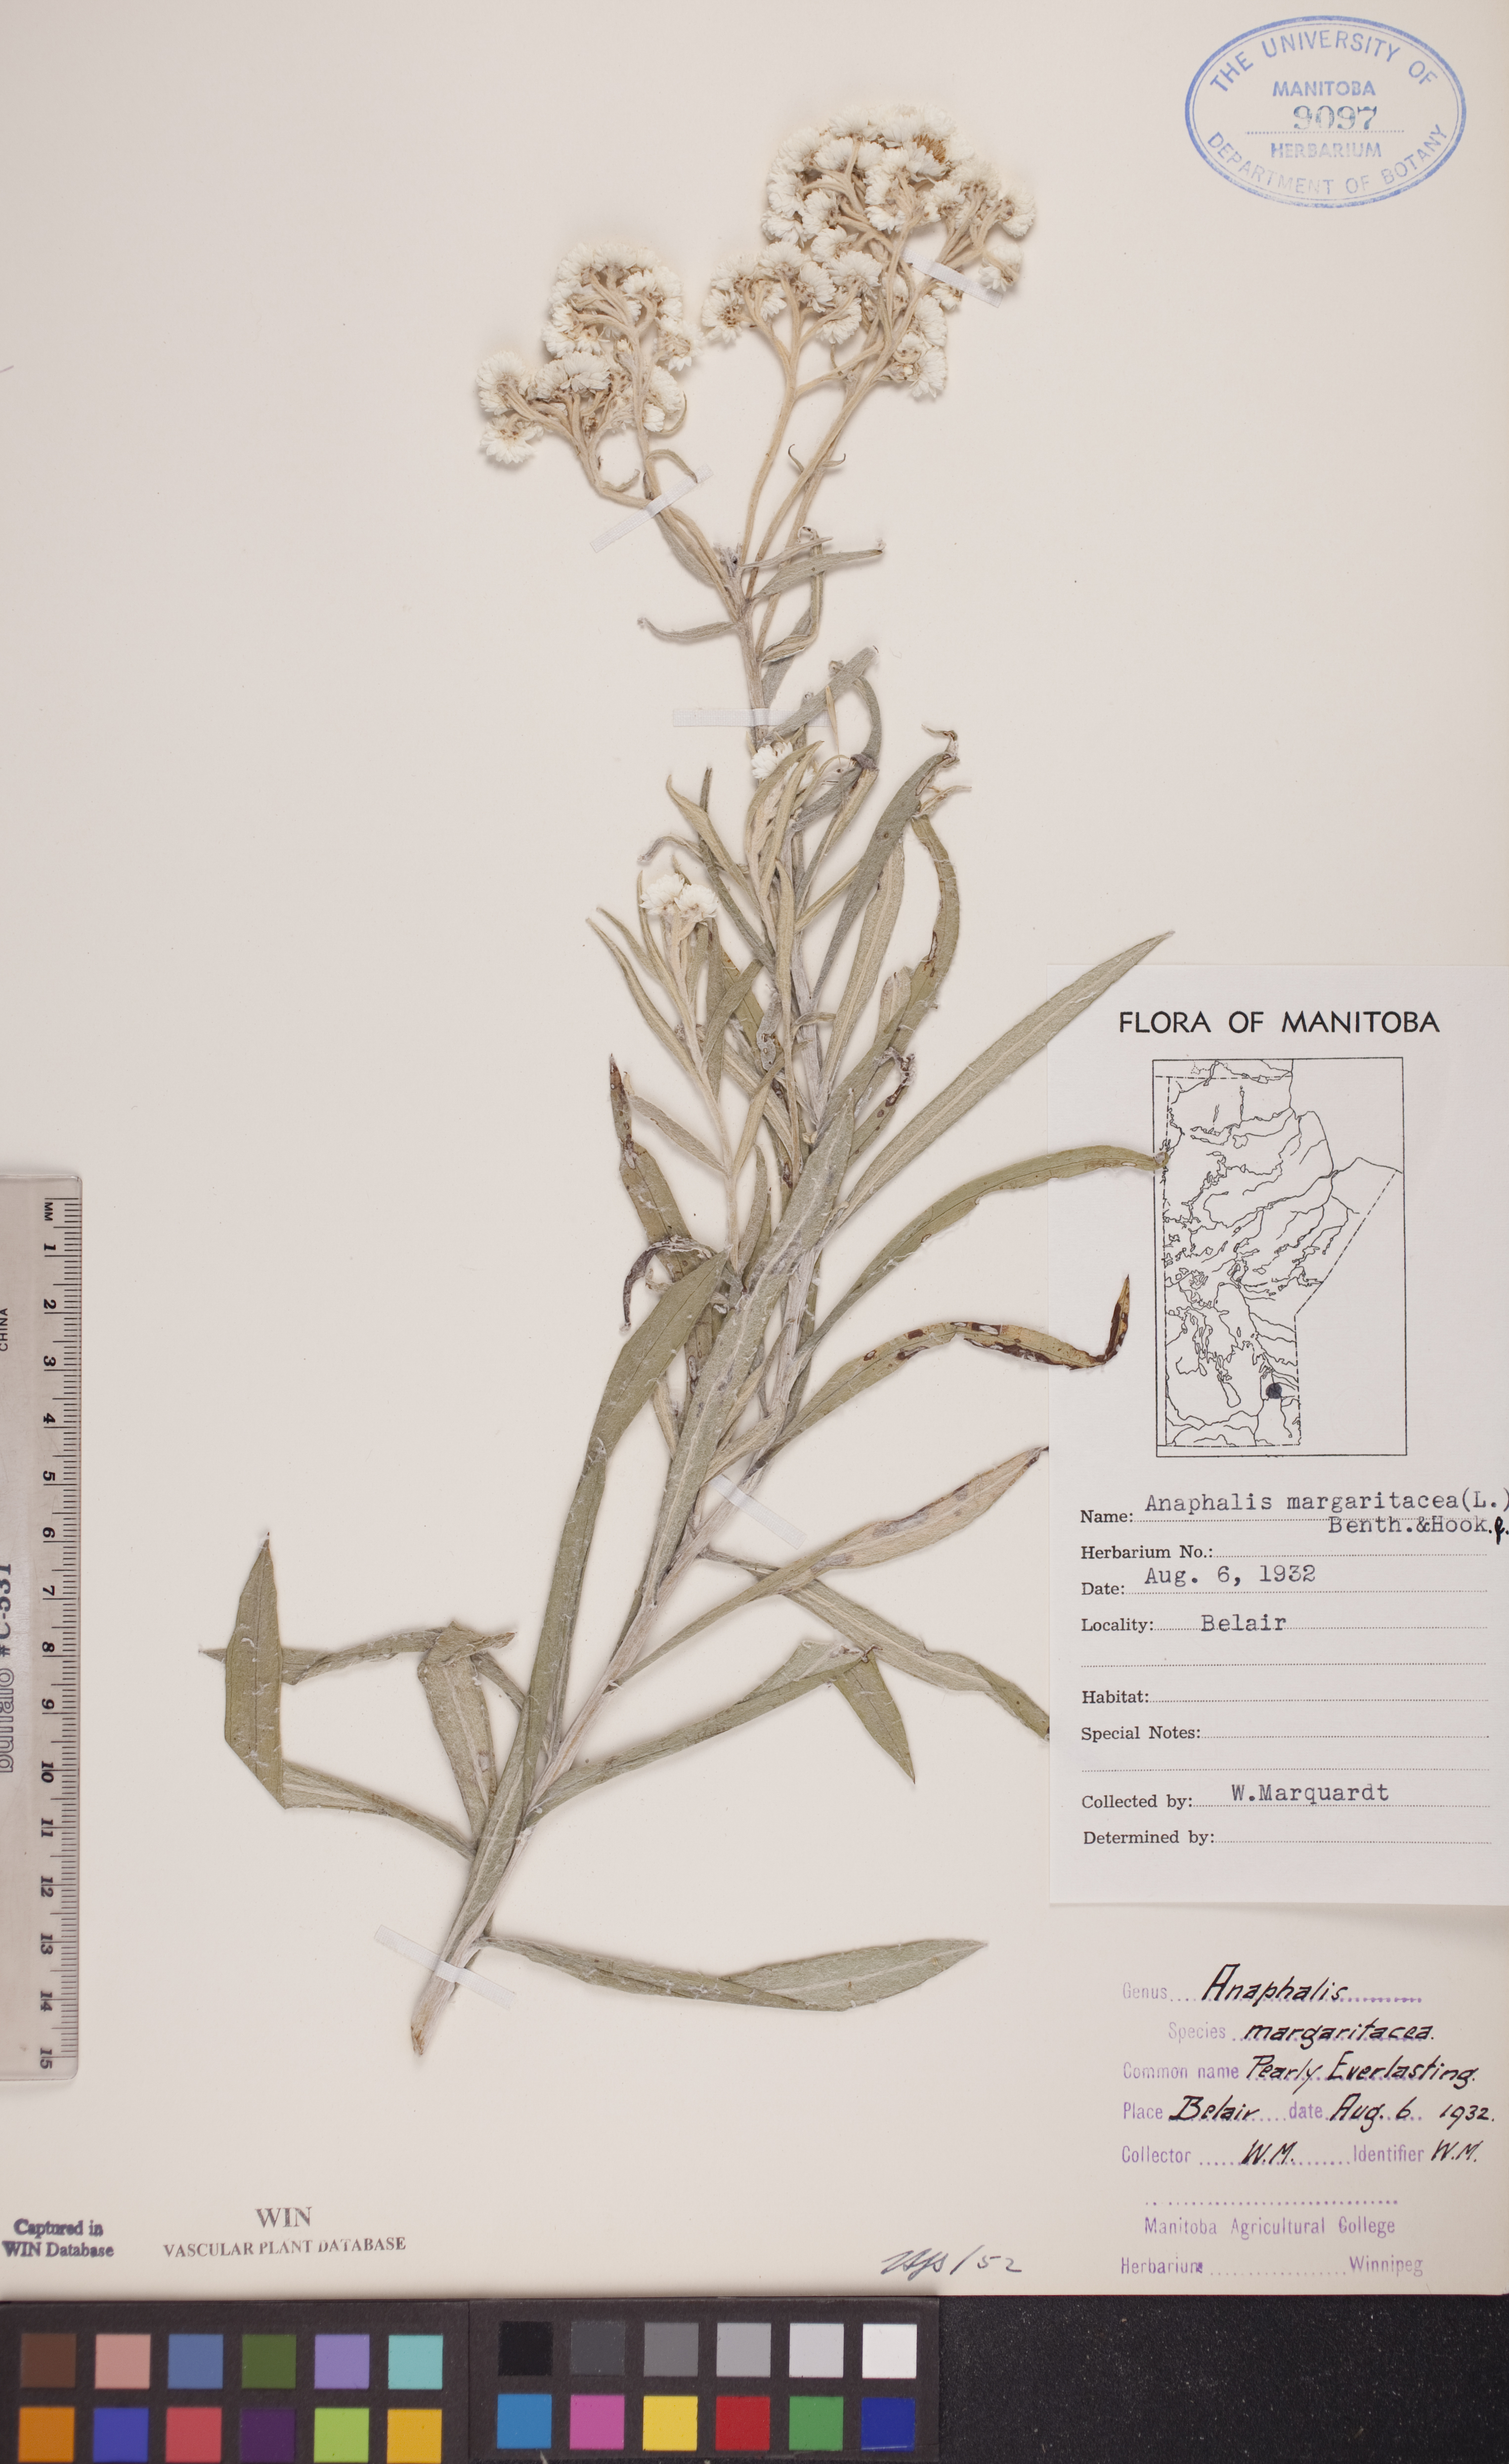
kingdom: Plantae
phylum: Tracheophyta
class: Magnoliopsida
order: Asterales
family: Asteraceae
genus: Anaphalis
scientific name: Anaphalis margaritacea
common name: Pearly everlasting
